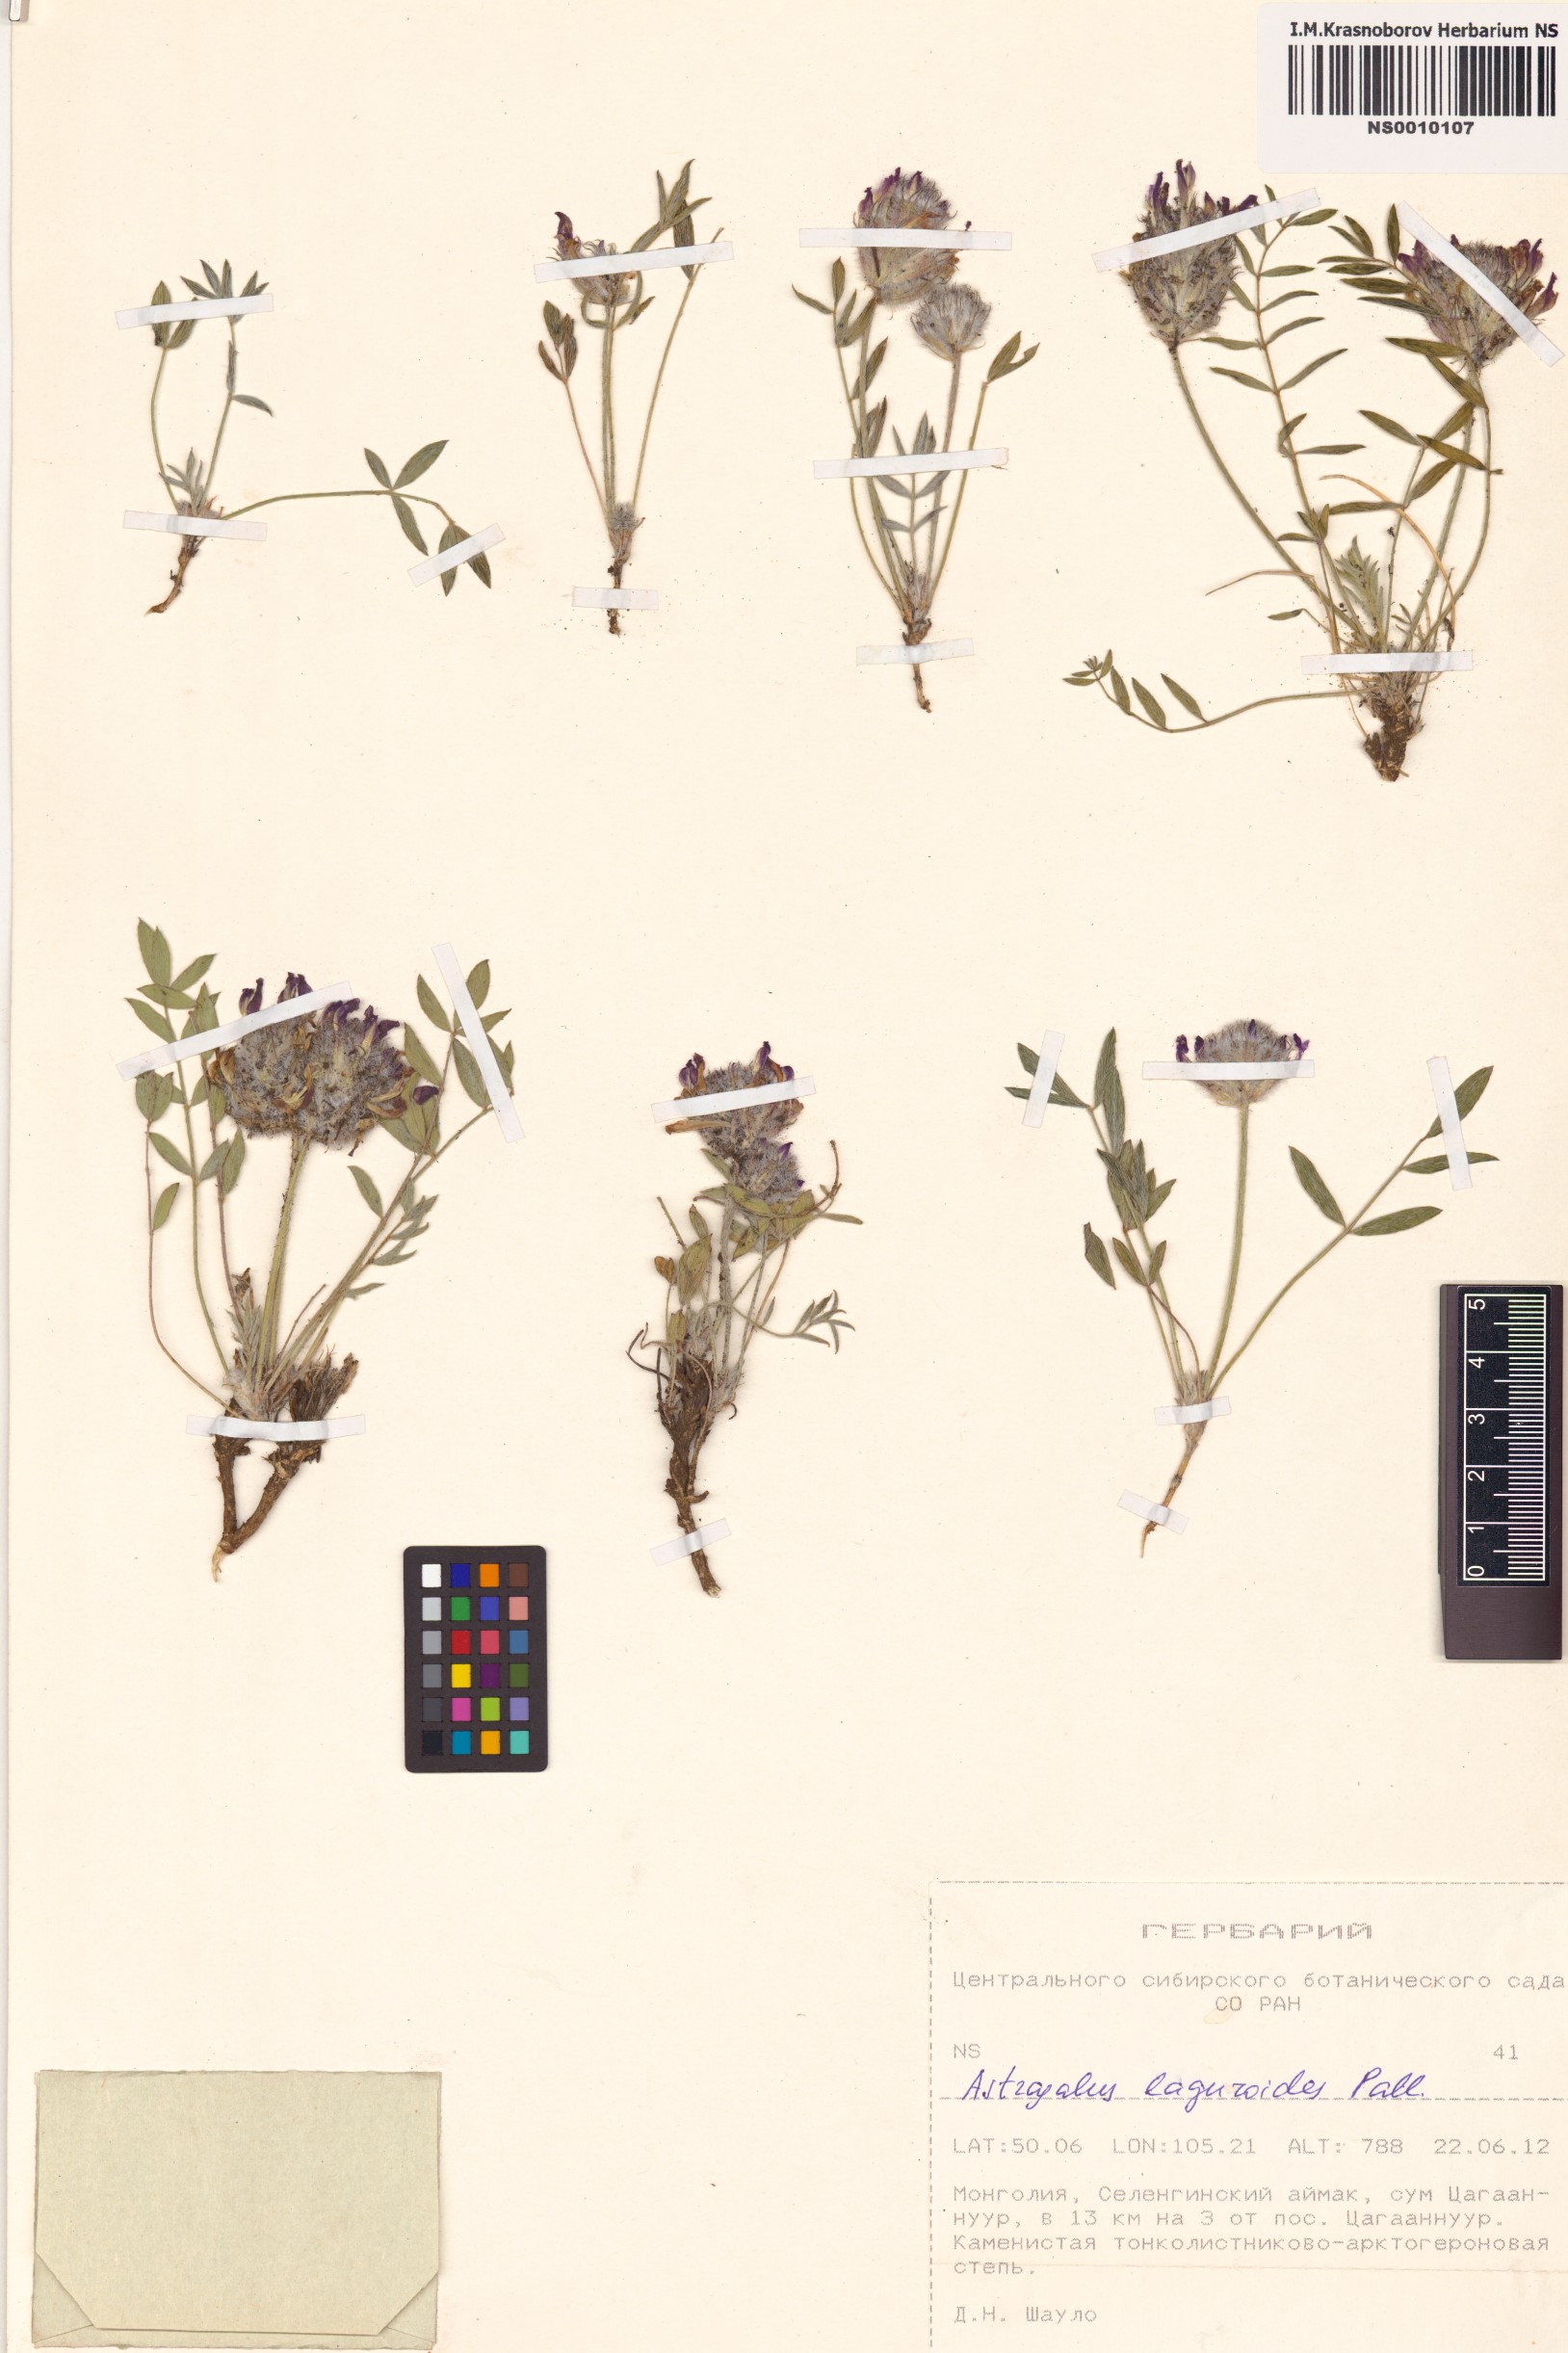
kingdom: Plantae
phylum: Tracheophyta
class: Magnoliopsida
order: Fabales
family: Fabaceae
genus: Astragalus
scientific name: Astragalus laguroides
